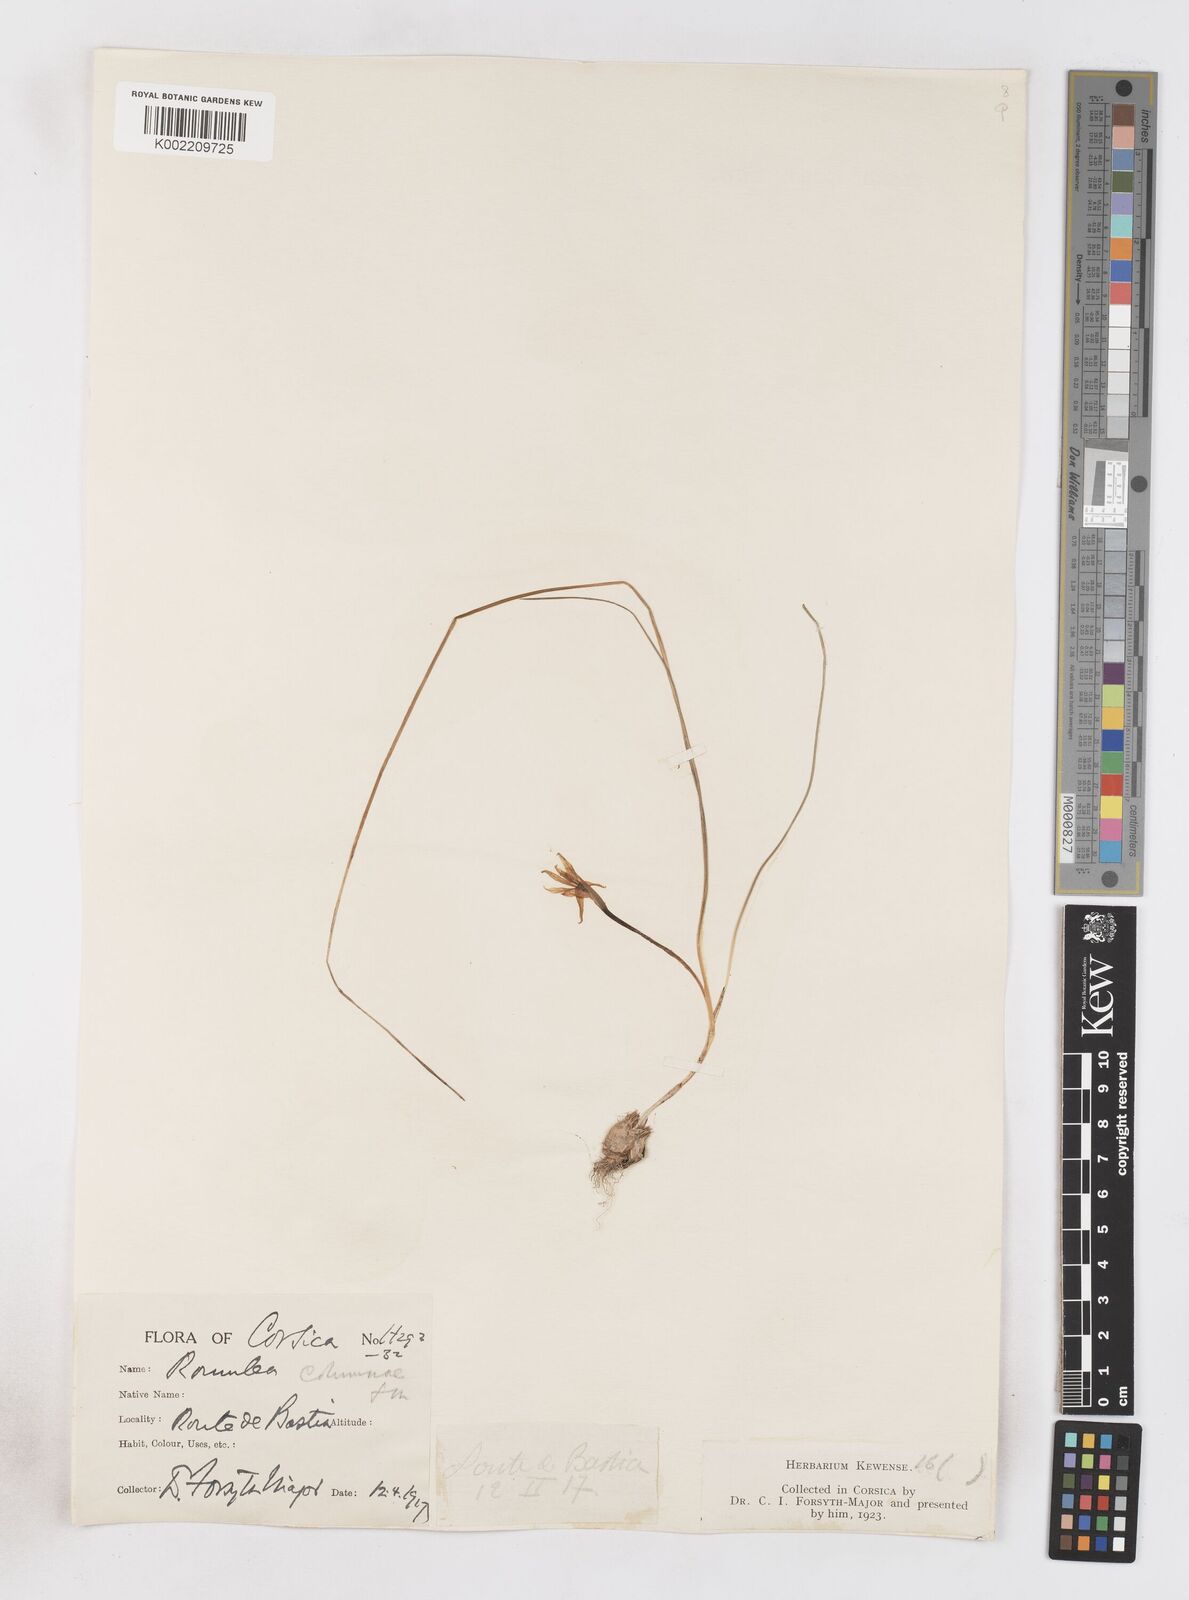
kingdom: Plantae
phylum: Tracheophyta
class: Liliopsida
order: Asparagales
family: Iridaceae
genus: Romulea
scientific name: Romulea columnae
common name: Sand-crocus
